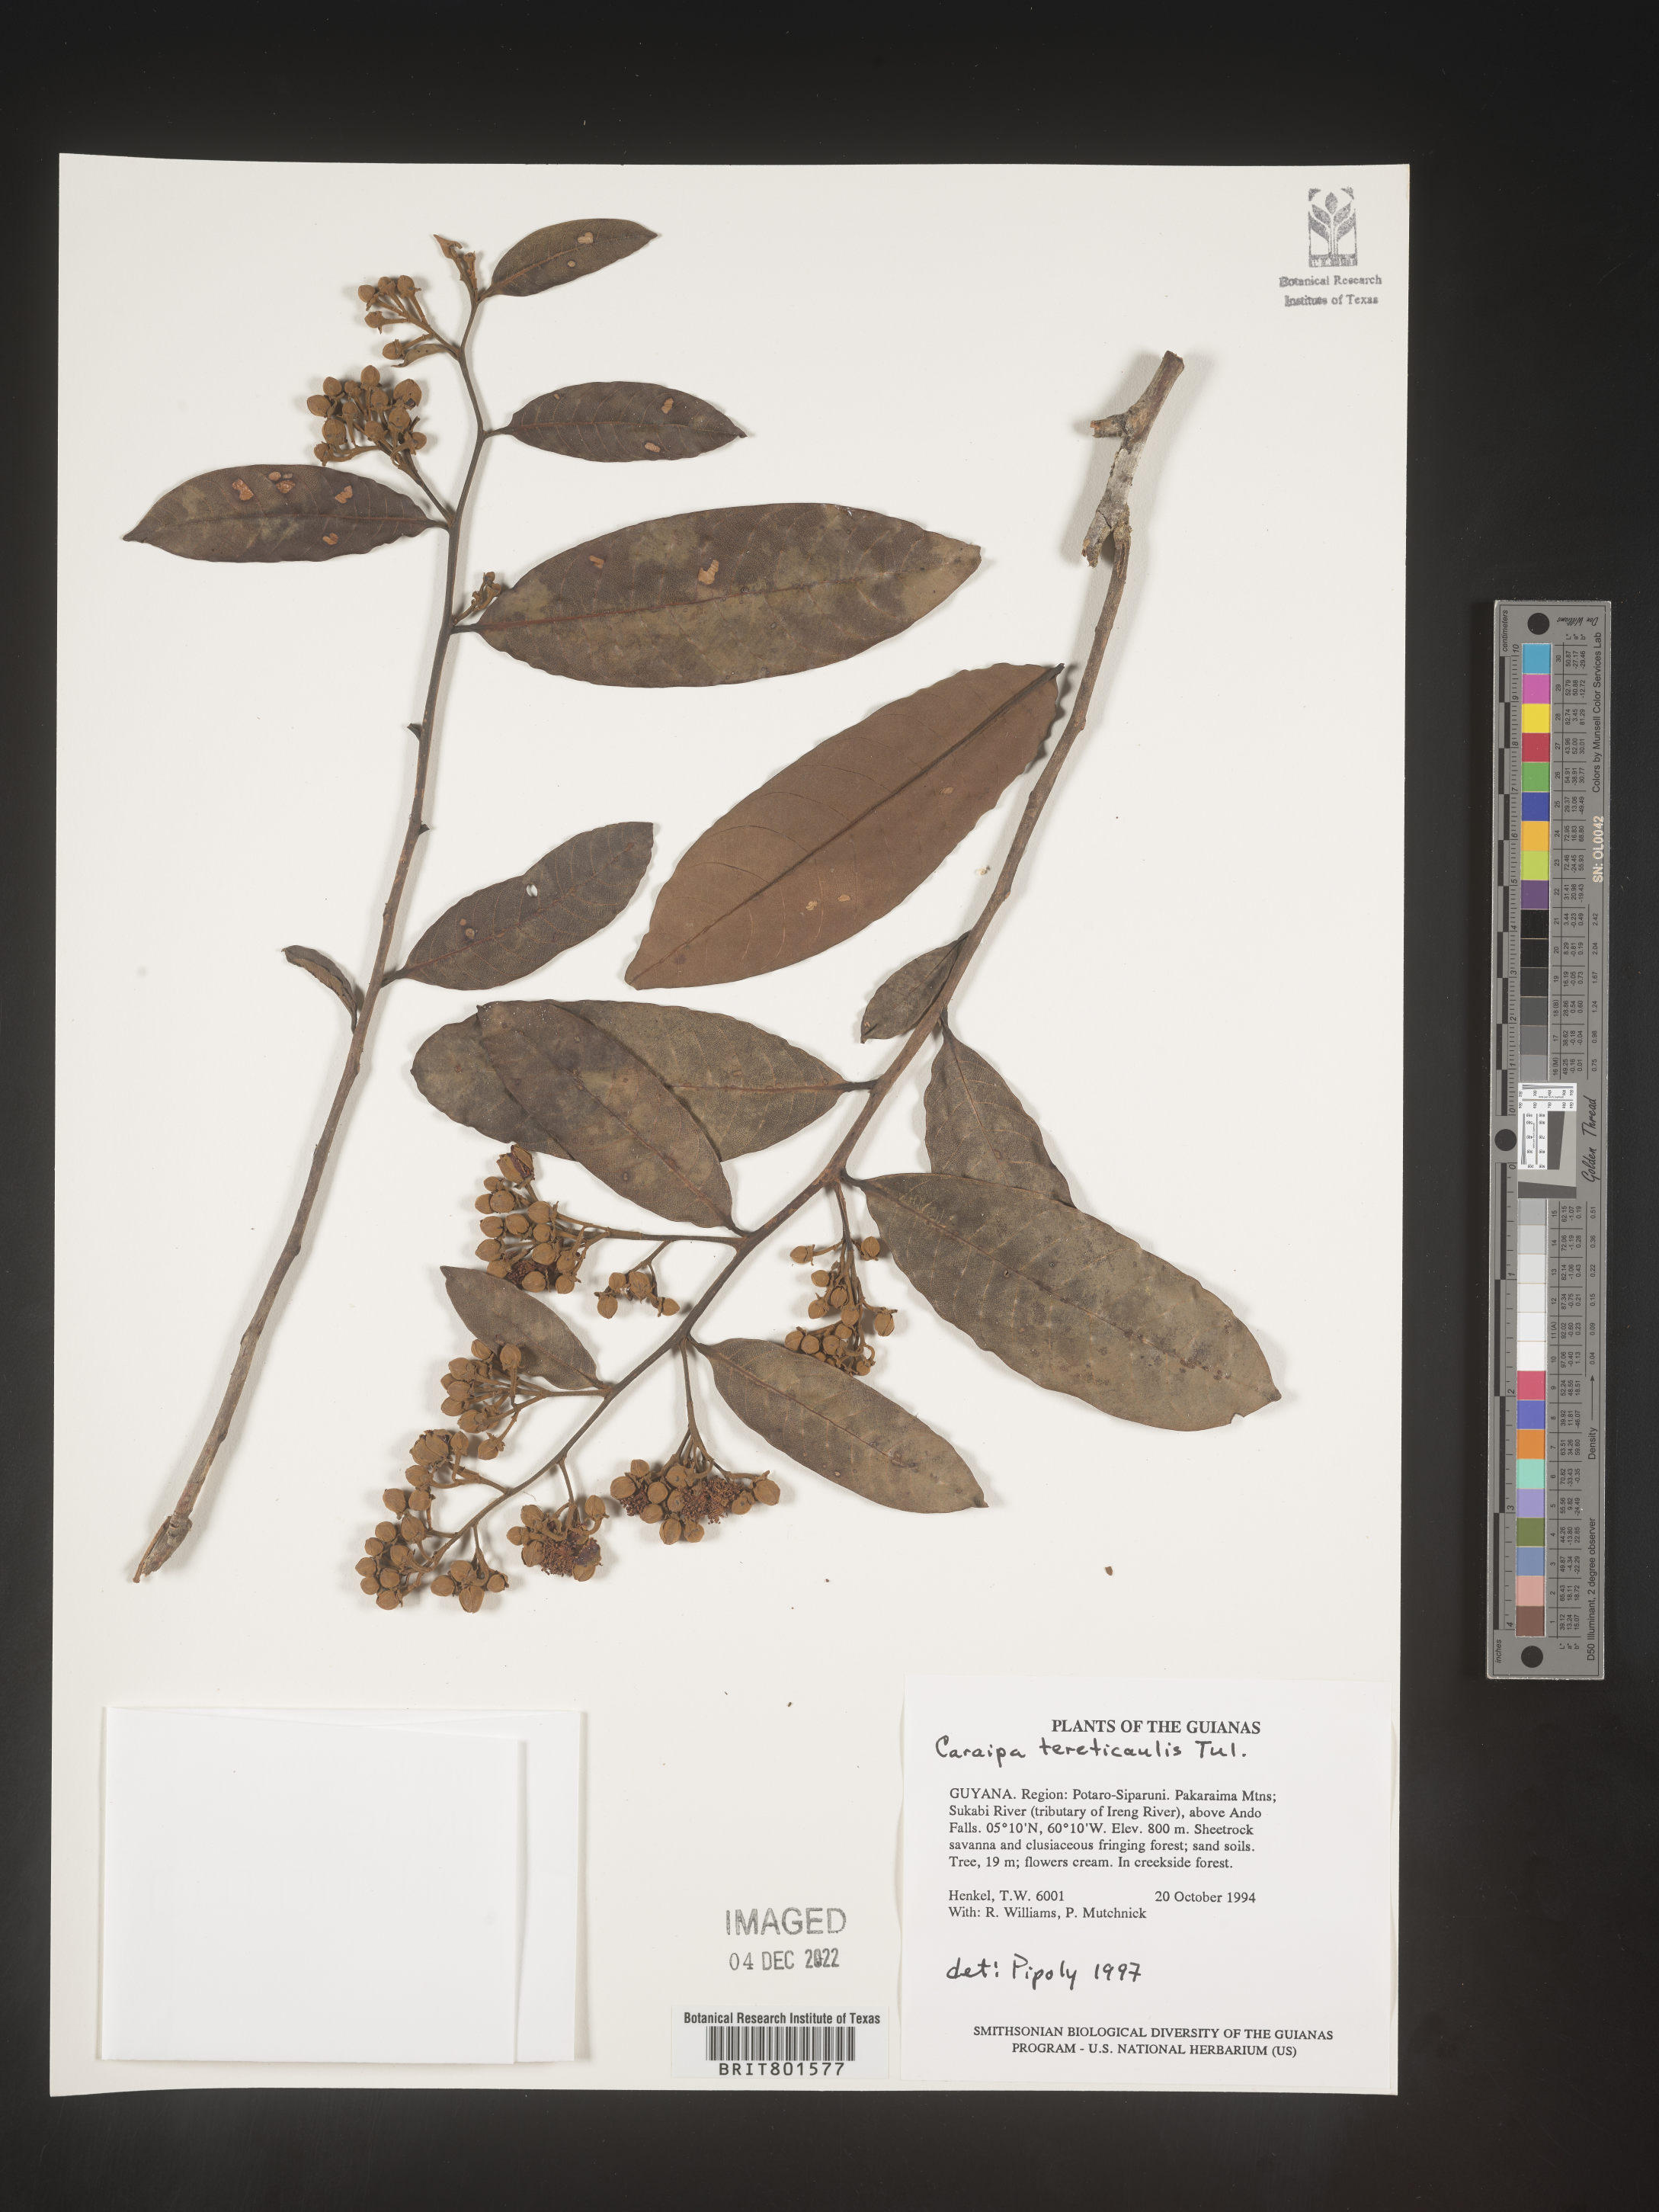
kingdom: Plantae
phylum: Tracheophyta
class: Magnoliopsida
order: Malpighiales
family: Calophyllaceae
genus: Caraipa
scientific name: Caraipa
